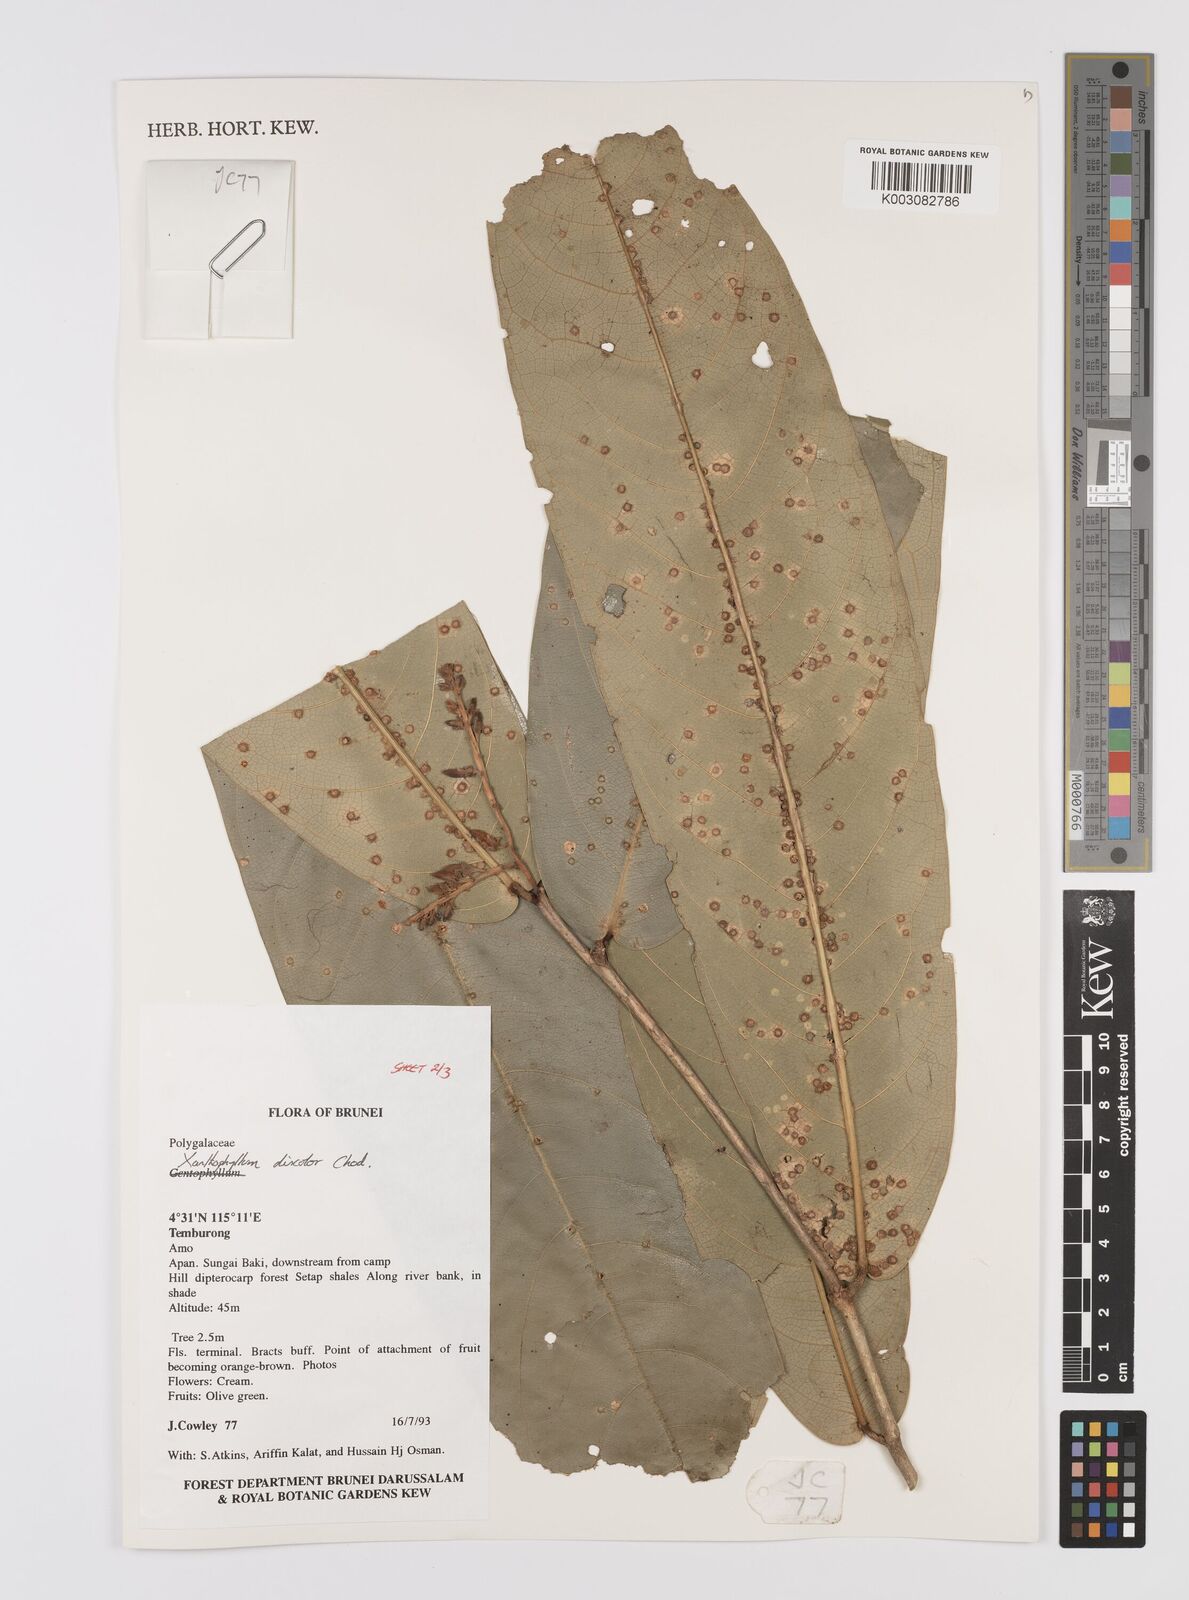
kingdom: Plantae
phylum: Tracheophyta
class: Magnoliopsida
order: Fabales
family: Polygalaceae
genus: Xanthophyllum
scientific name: Xanthophyllum discolor
